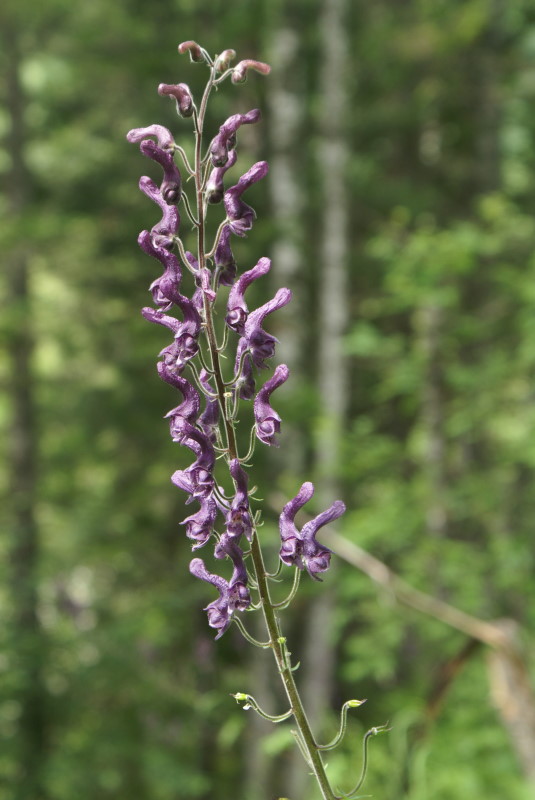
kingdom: Plantae
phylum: Tracheophyta
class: Magnoliopsida
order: Ranunculales
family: Ranunculaceae
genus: Aconitum
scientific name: Aconitum leucostomum
